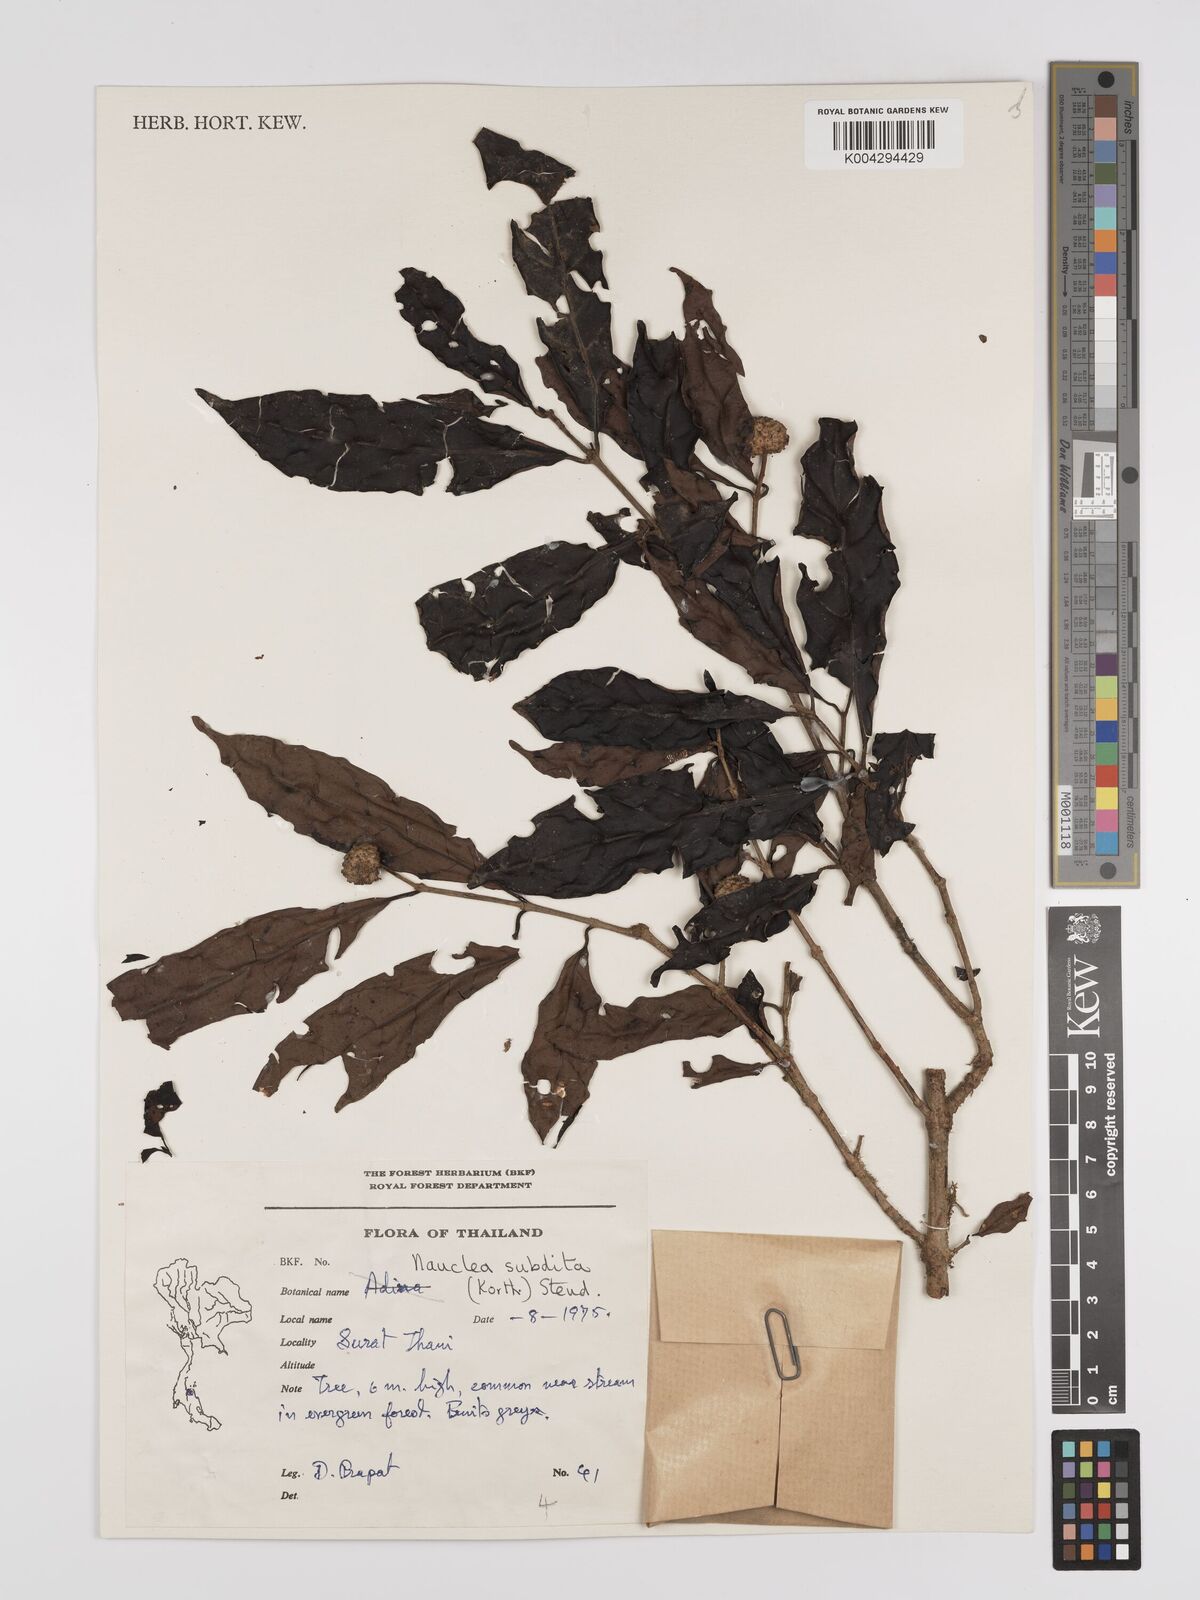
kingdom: Plantae
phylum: Tracheophyta
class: Magnoliopsida
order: Gentianales
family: Rubiaceae
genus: Nauclea
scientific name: Nauclea subdita
